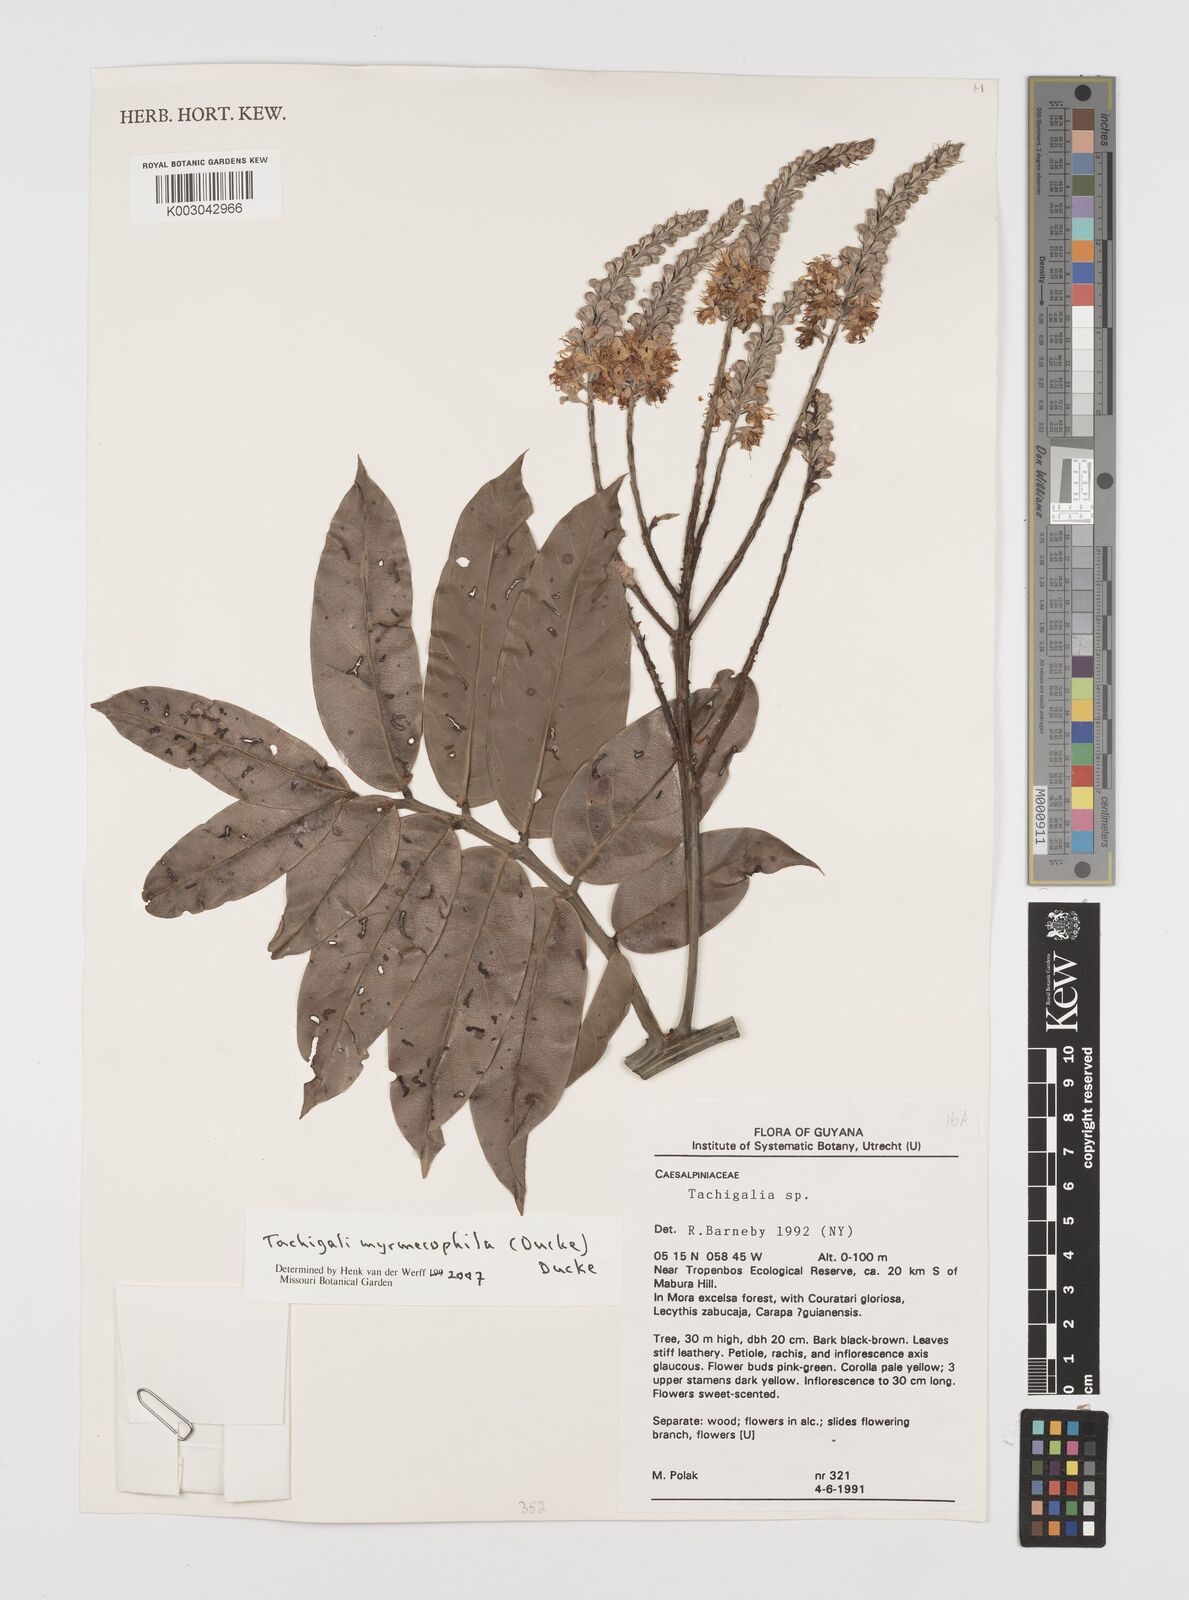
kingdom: Plantae
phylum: Tracheophyta
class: Magnoliopsida
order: Fabales
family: Fabaceae
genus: Tachigali
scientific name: Tachigali glauca
